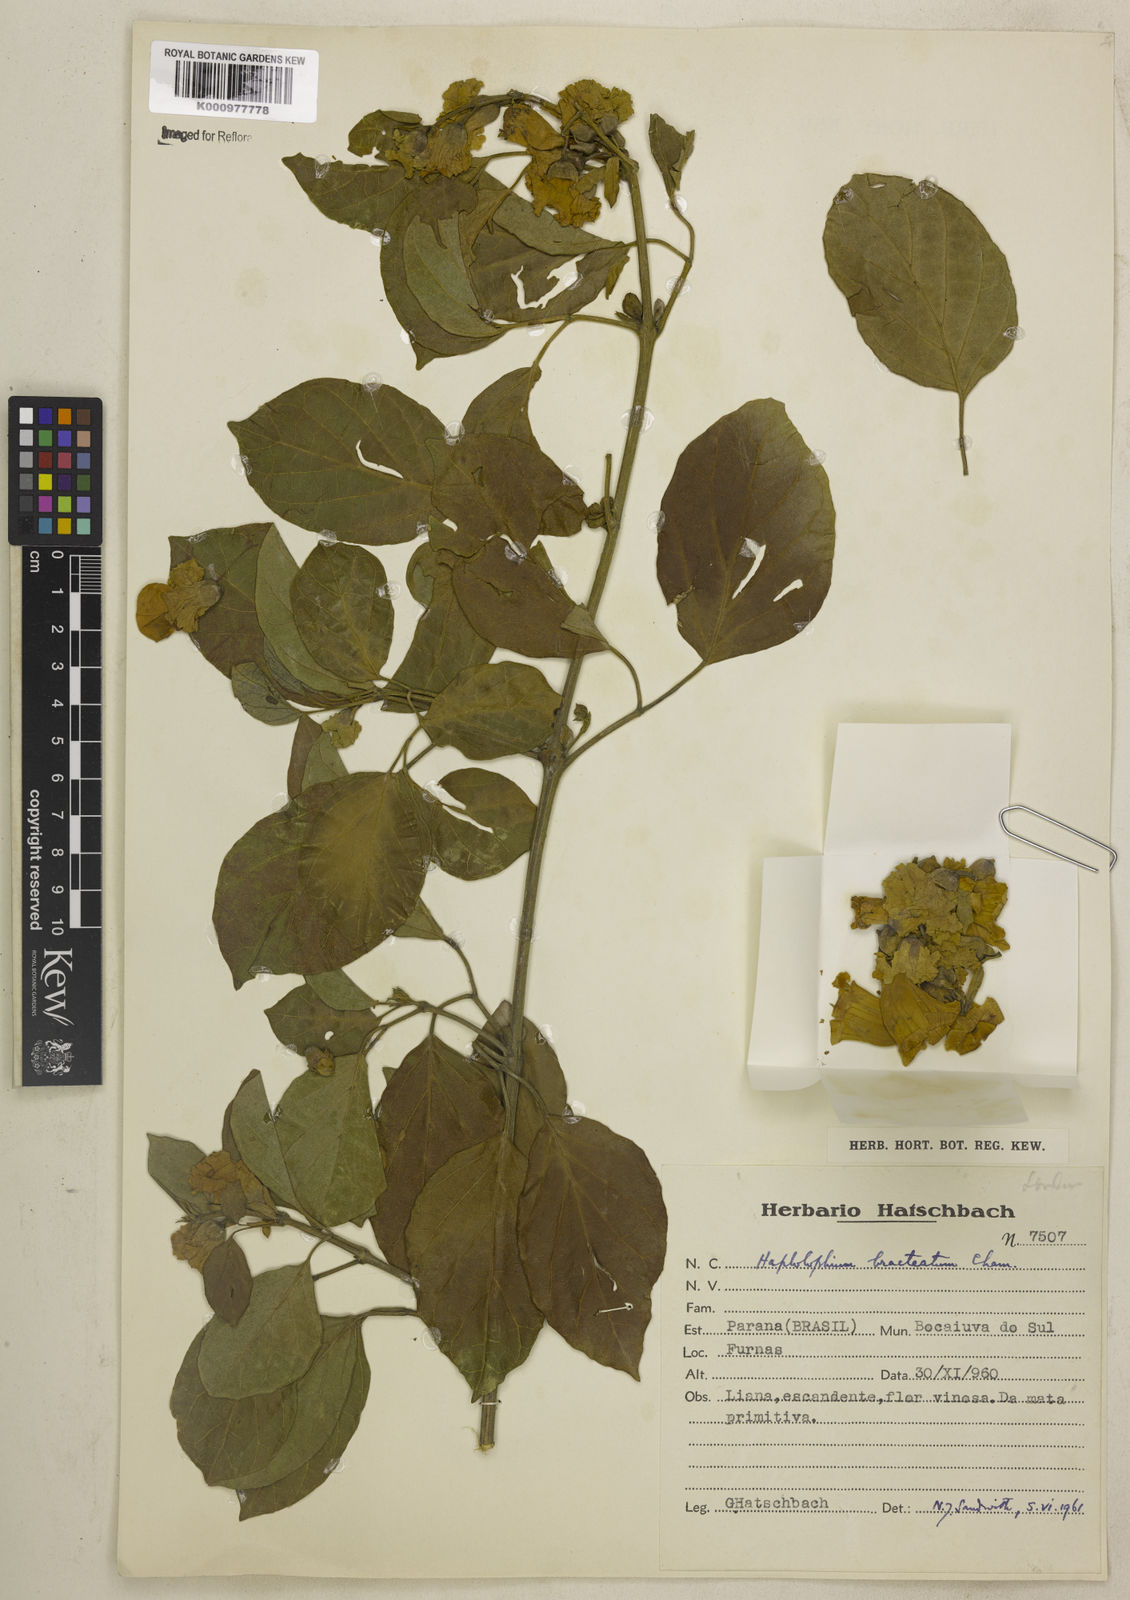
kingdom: Plantae
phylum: Tracheophyta
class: Magnoliopsida
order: Lamiales
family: Bignoniaceae
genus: Amphilophium
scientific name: Amphilophium bracteatum
